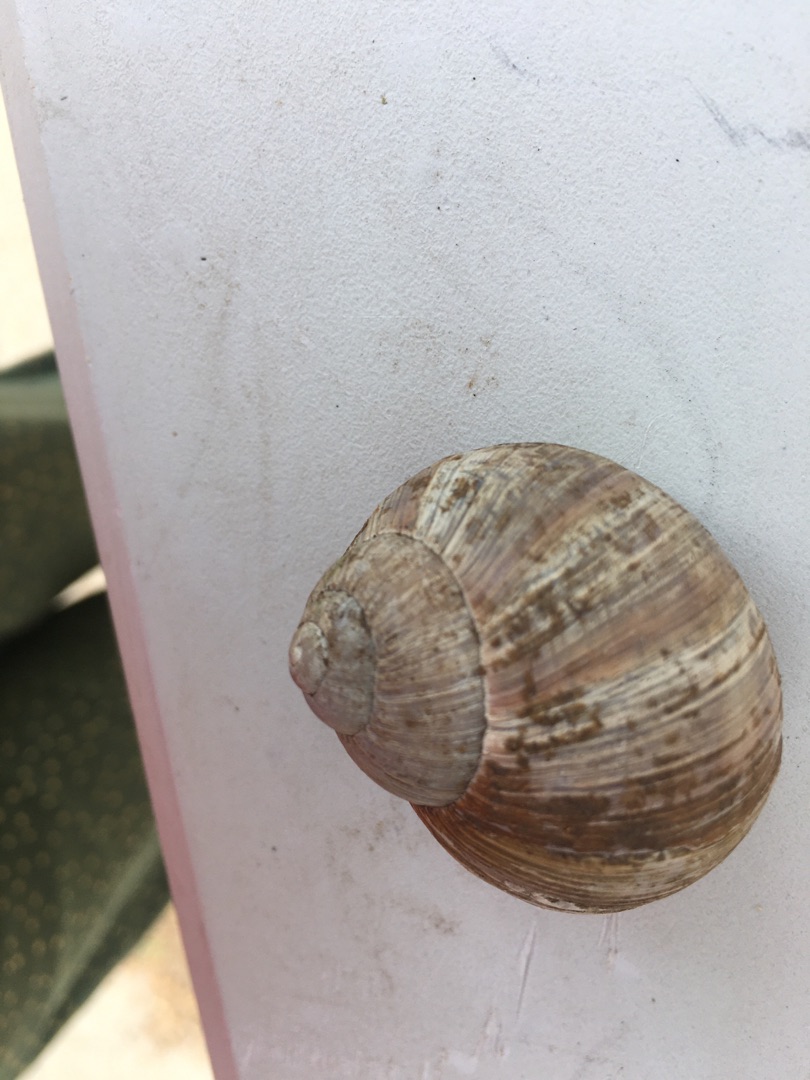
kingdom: Animalia
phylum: Mollusca
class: Gastropoda
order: Stylommatophora
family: Helicidae
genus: Helix
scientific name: Helix pomatia
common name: Vinbjergsnegl
